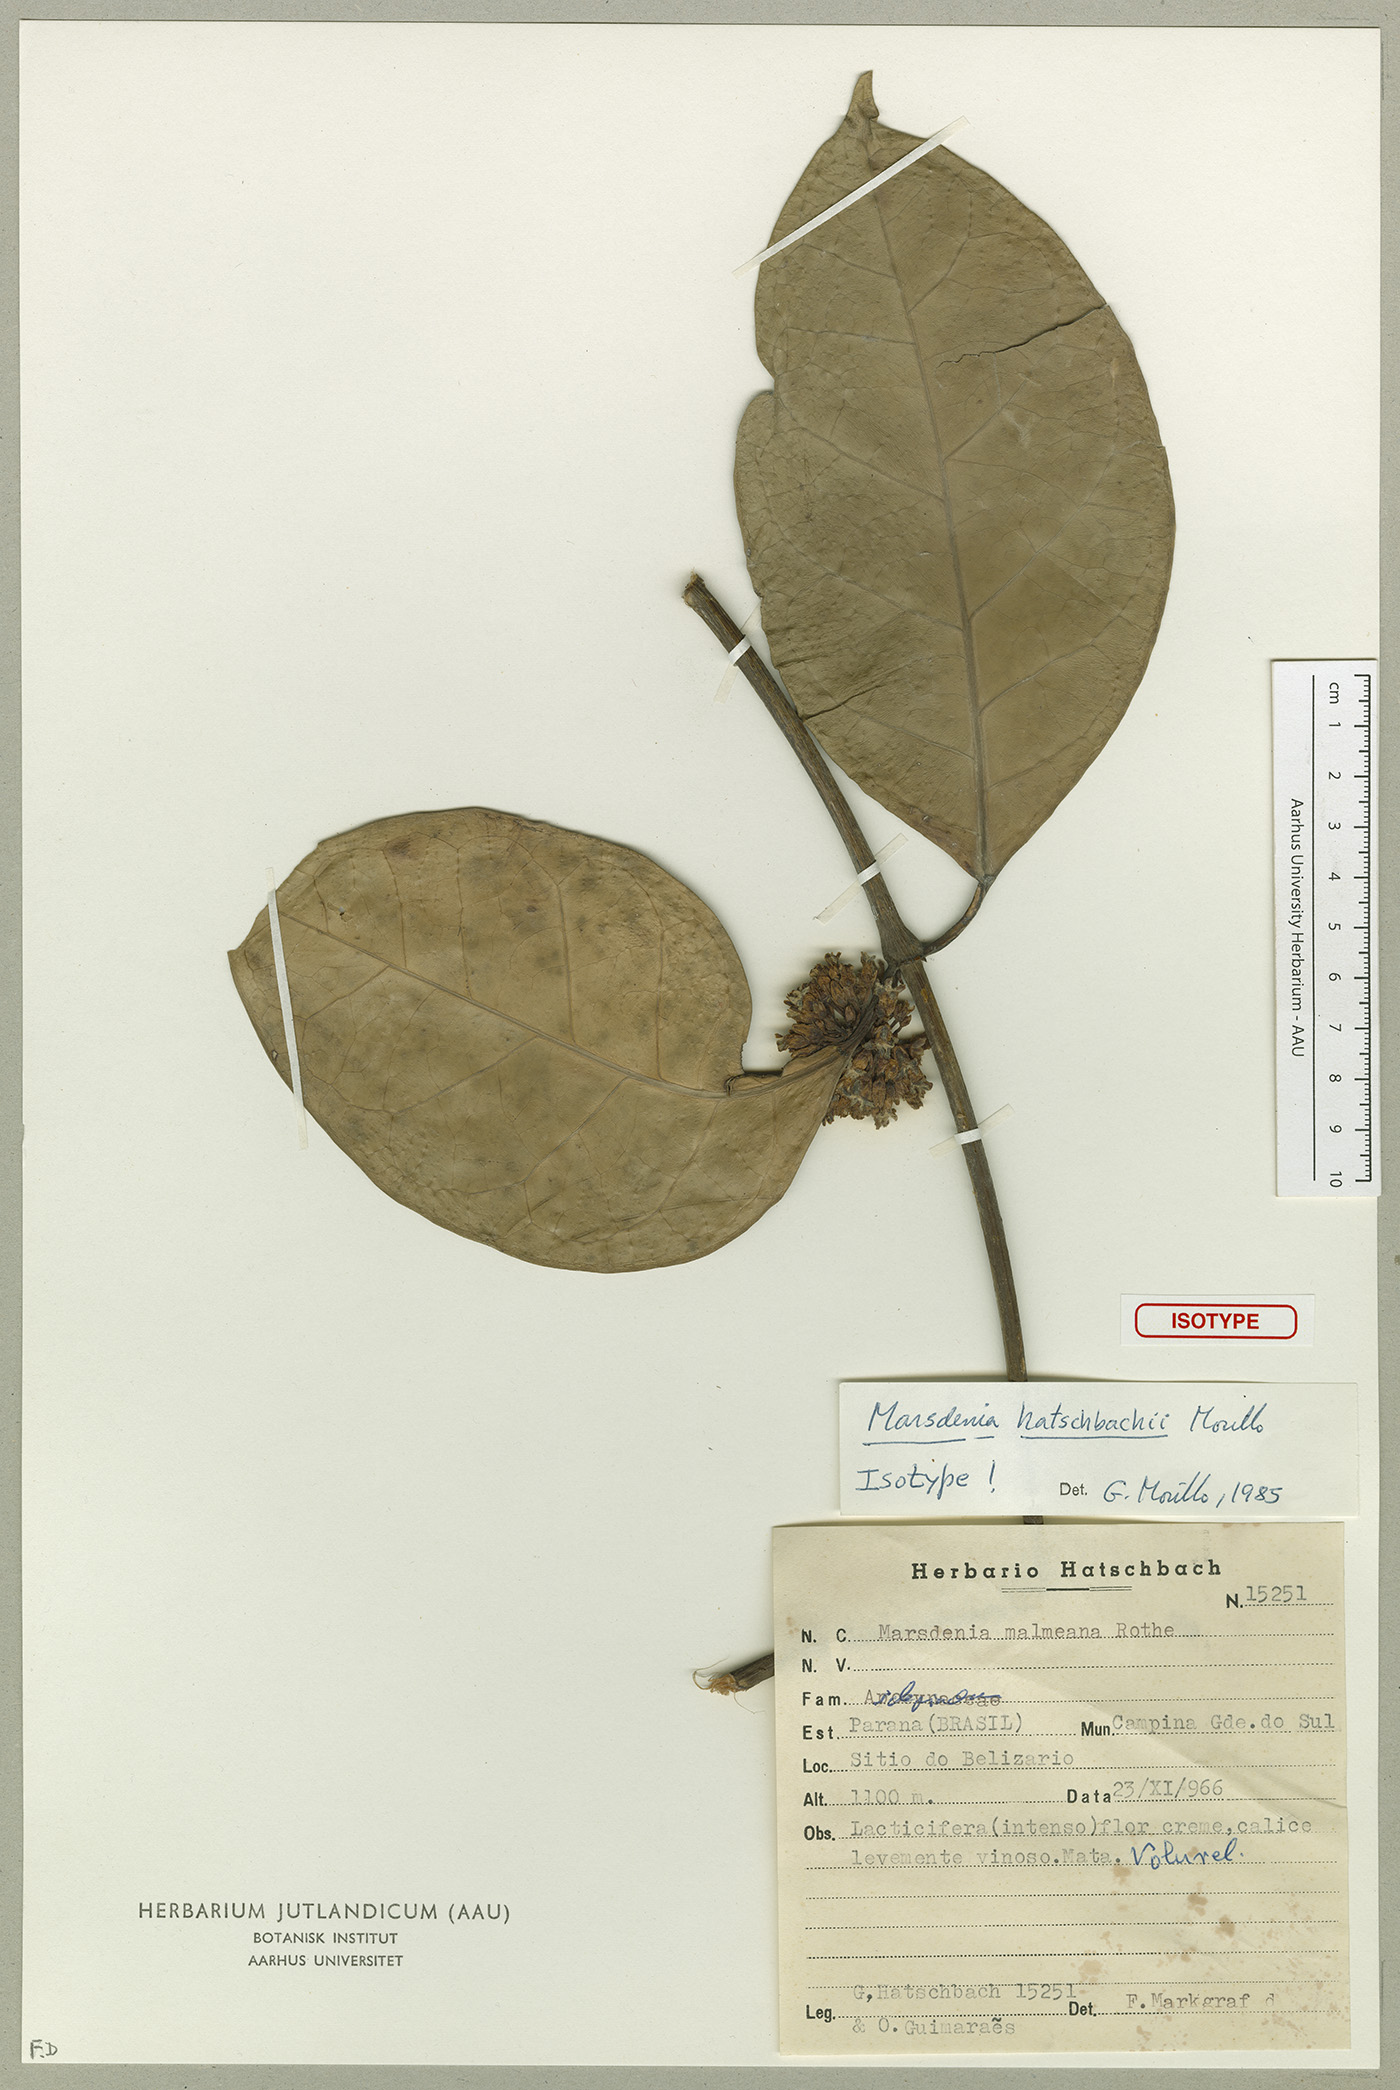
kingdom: Plantae
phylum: Tracheophyta
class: Magnoliopsida
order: Gentianales
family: Apocynaceae
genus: Ruehssia
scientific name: Ruehssia hatschbachii
